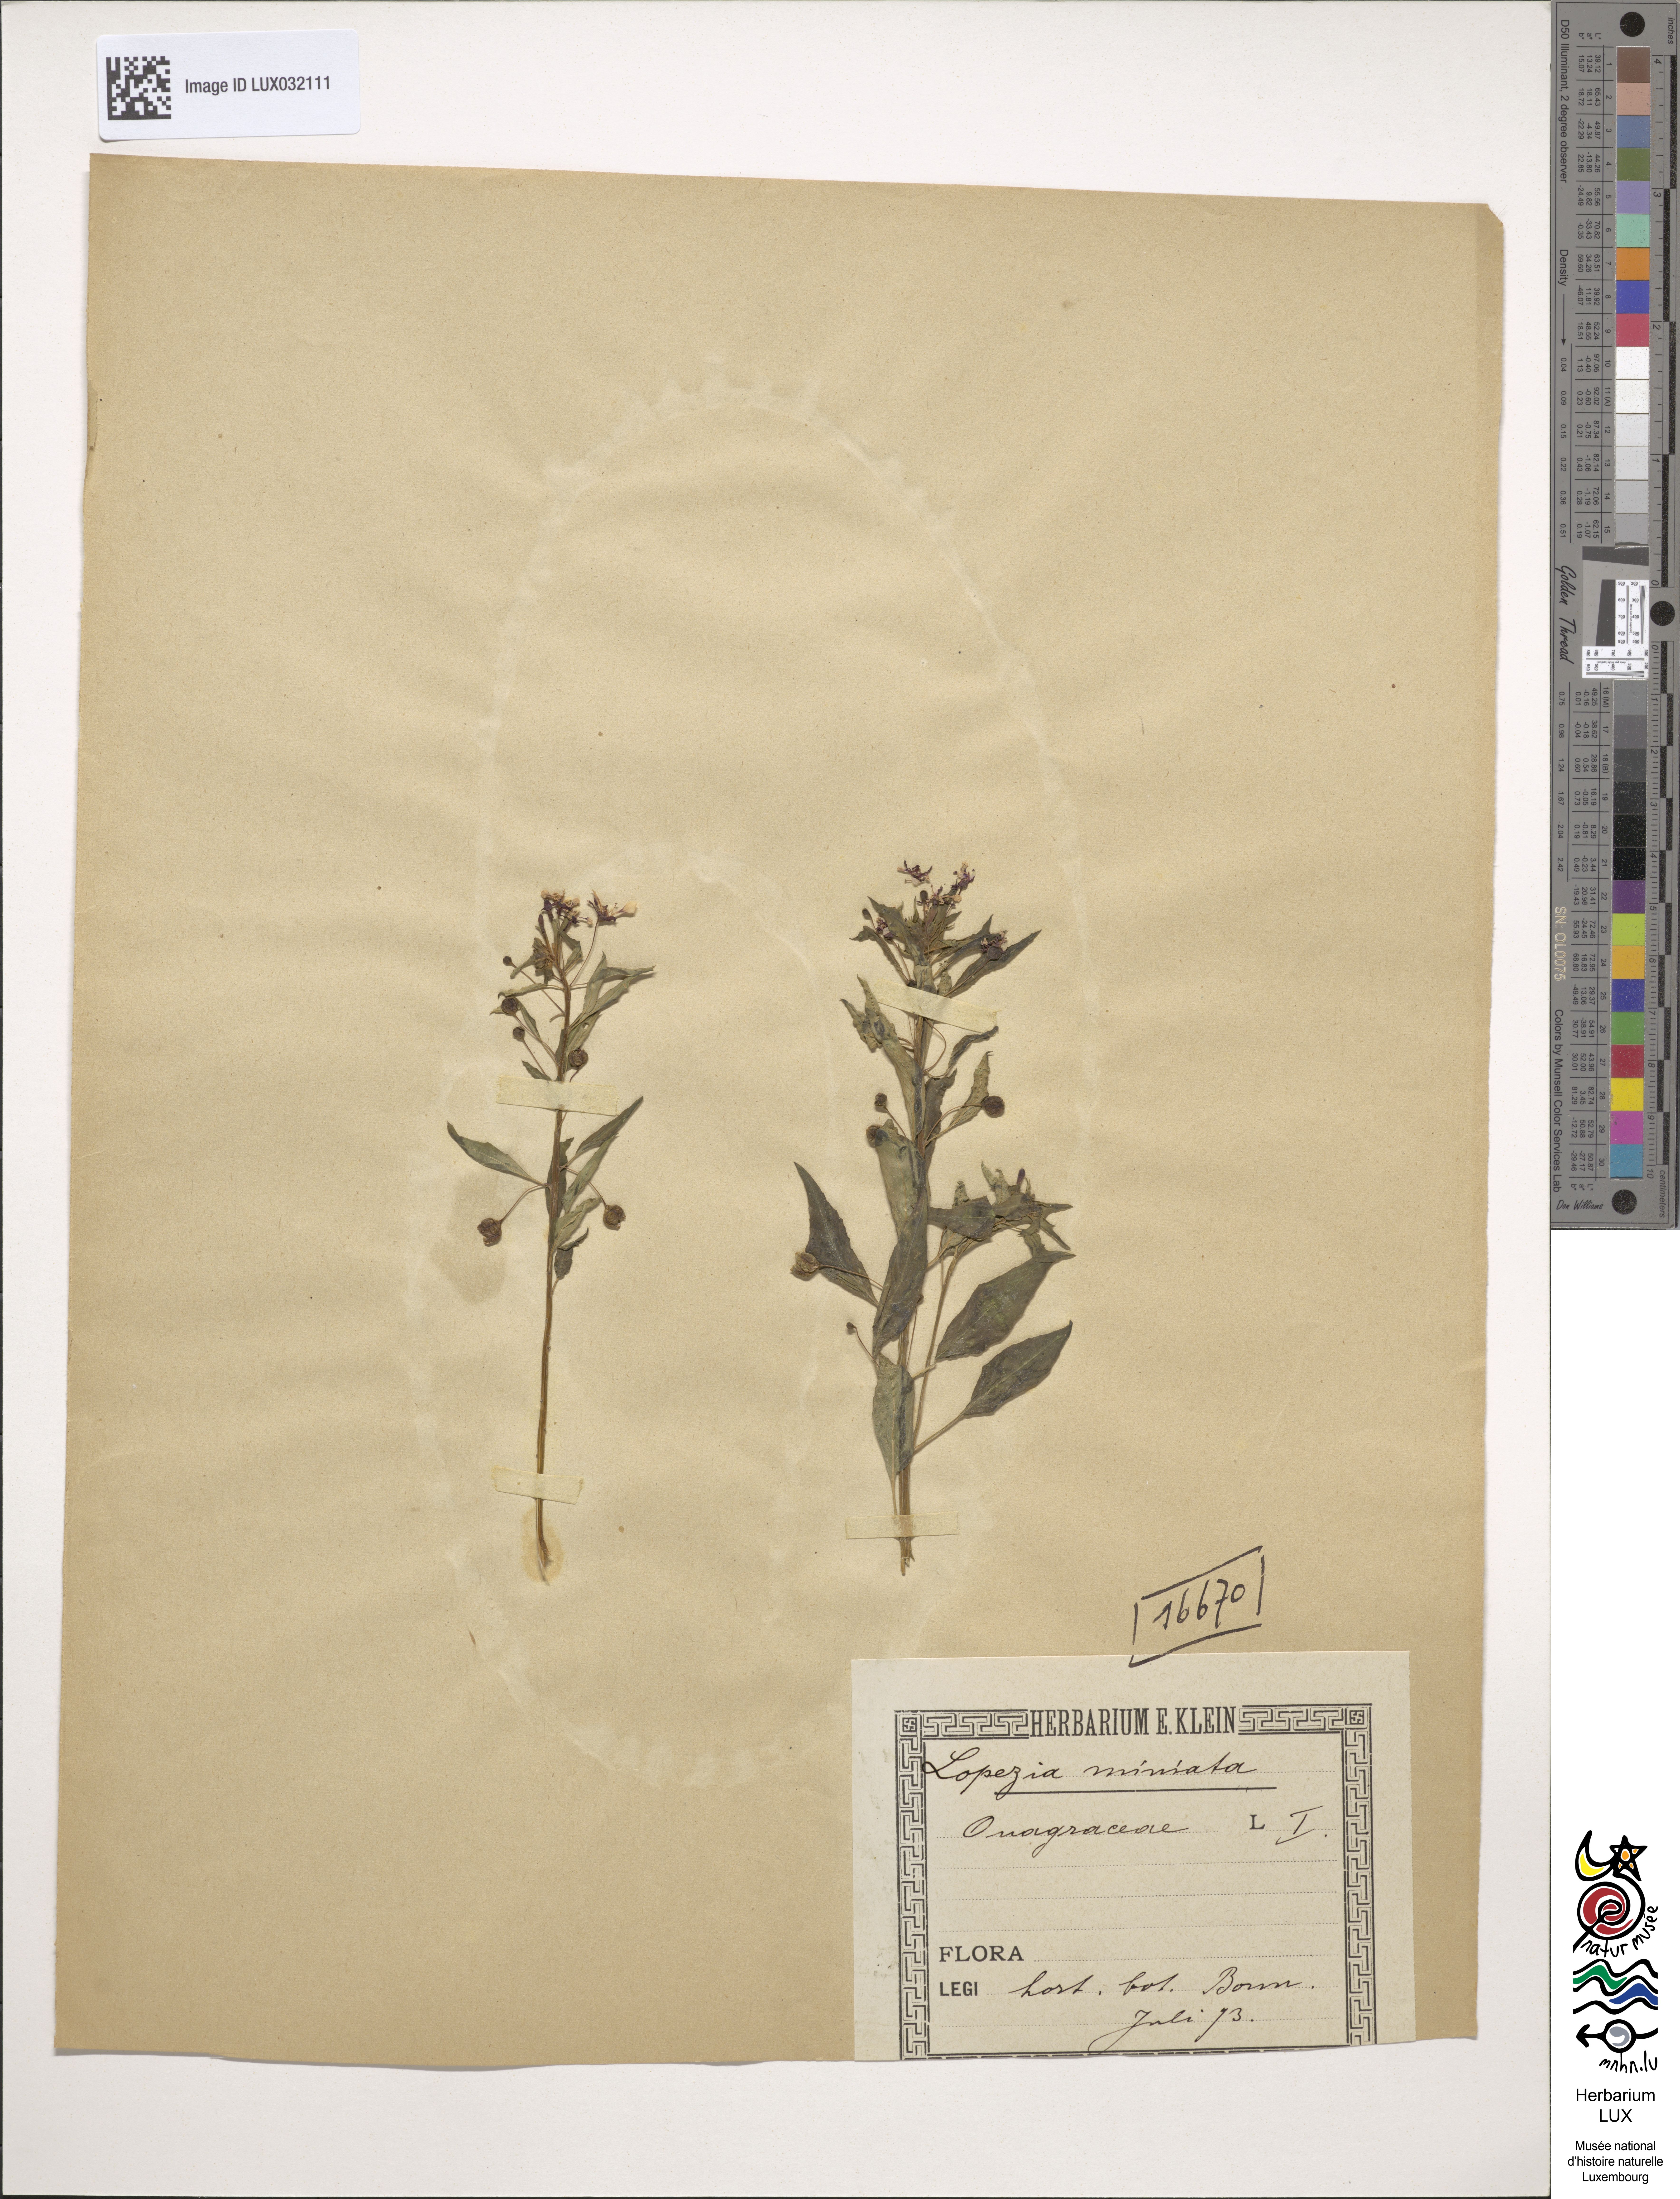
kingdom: Plantae
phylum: Tracheophyta
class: Magnoliopsida
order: Myrtales
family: Onagraceae
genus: Lopezia
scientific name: Lopezia miniata
